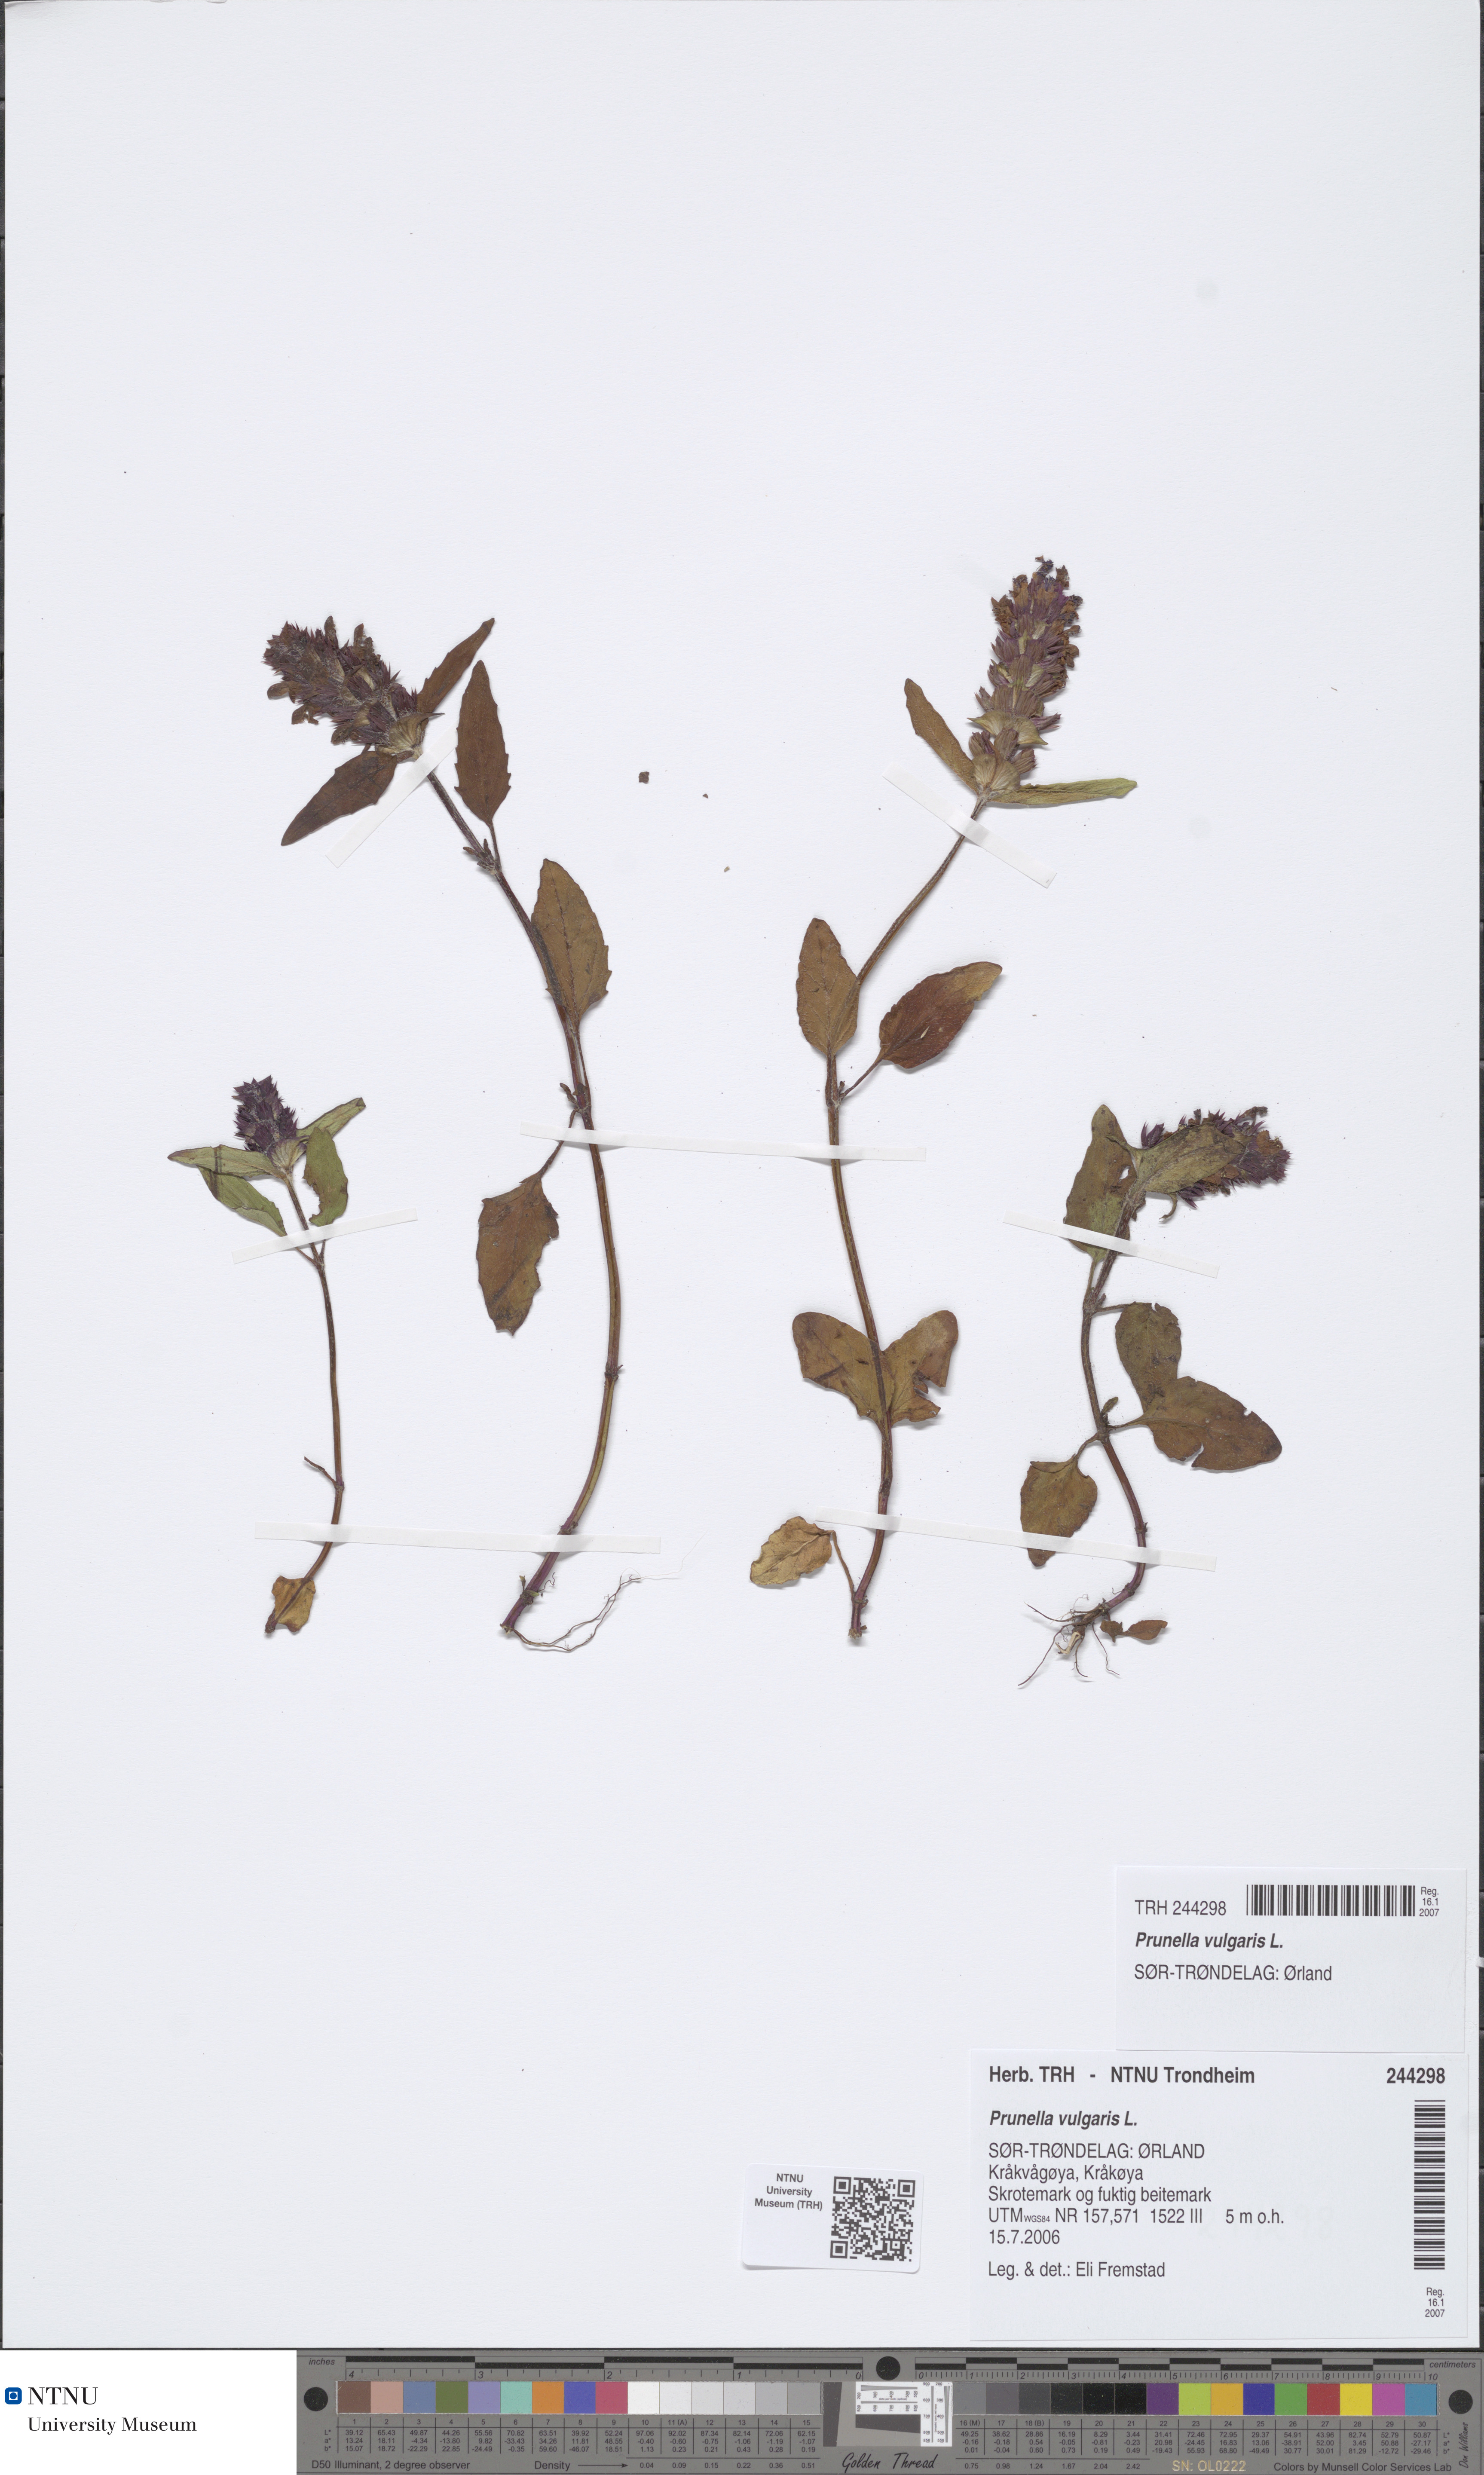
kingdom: Plantae
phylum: Tracheophyta
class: Magnoliopsida
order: Lamiales
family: Lamiaceae
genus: Prunella
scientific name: Prunella vulgaris
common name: Heal-all
